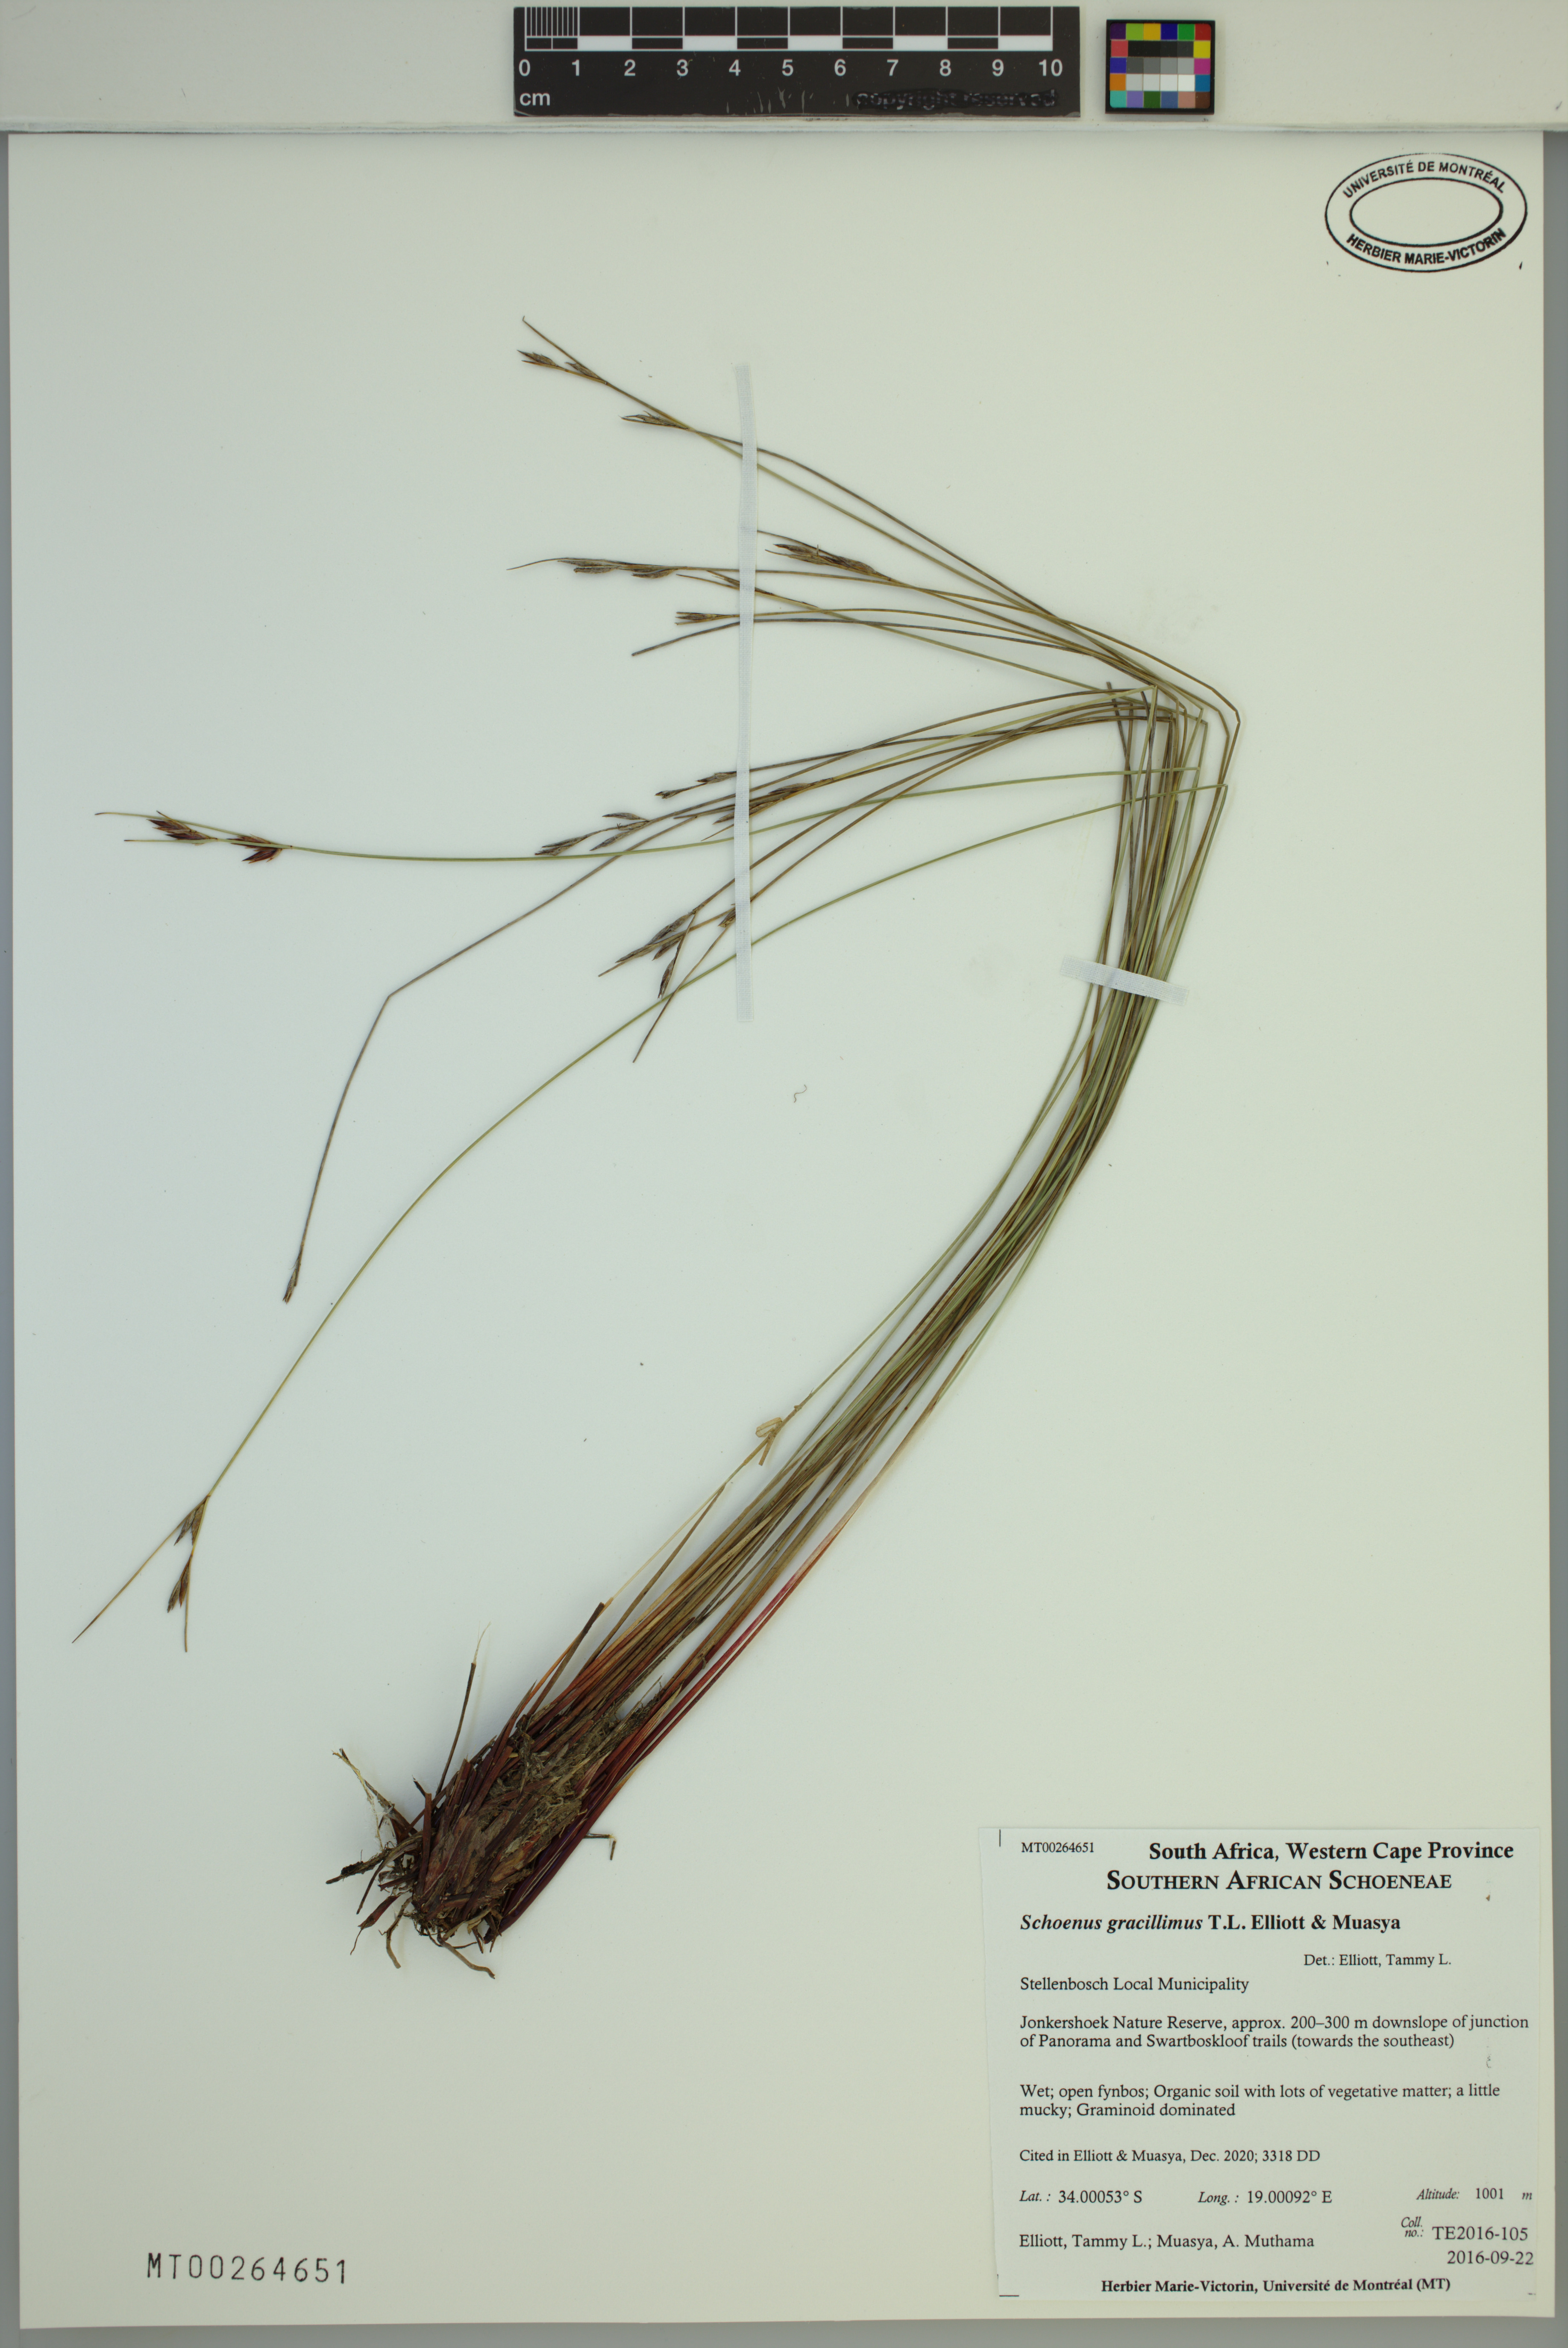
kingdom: Plantae
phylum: Tracheophyta
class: Liliopsida
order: Poales
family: Cyperaceae
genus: Schoenus
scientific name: Schoenus gracillimus
